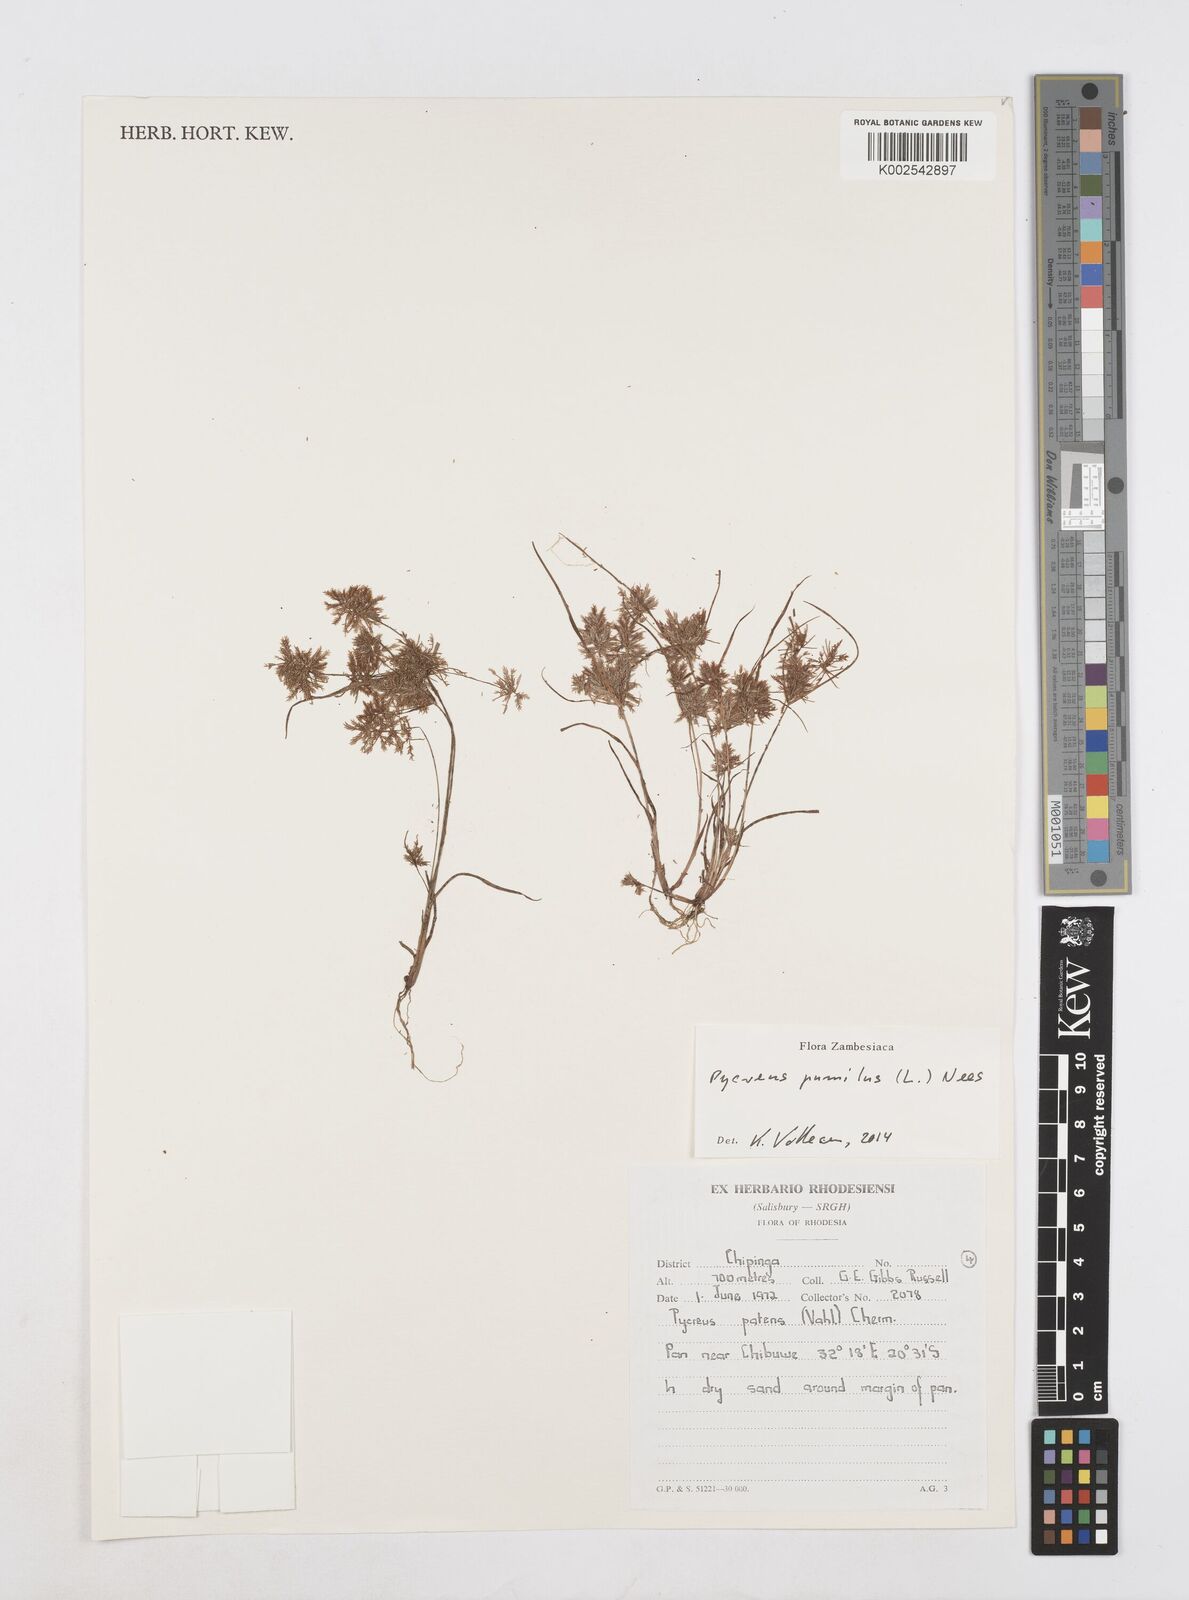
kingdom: Plantae
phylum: Tracheophyta
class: Liliopsida
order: Poales
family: Cyperaceae
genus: Cyperus
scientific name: Cyperus pumilus
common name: Low flatsedge
